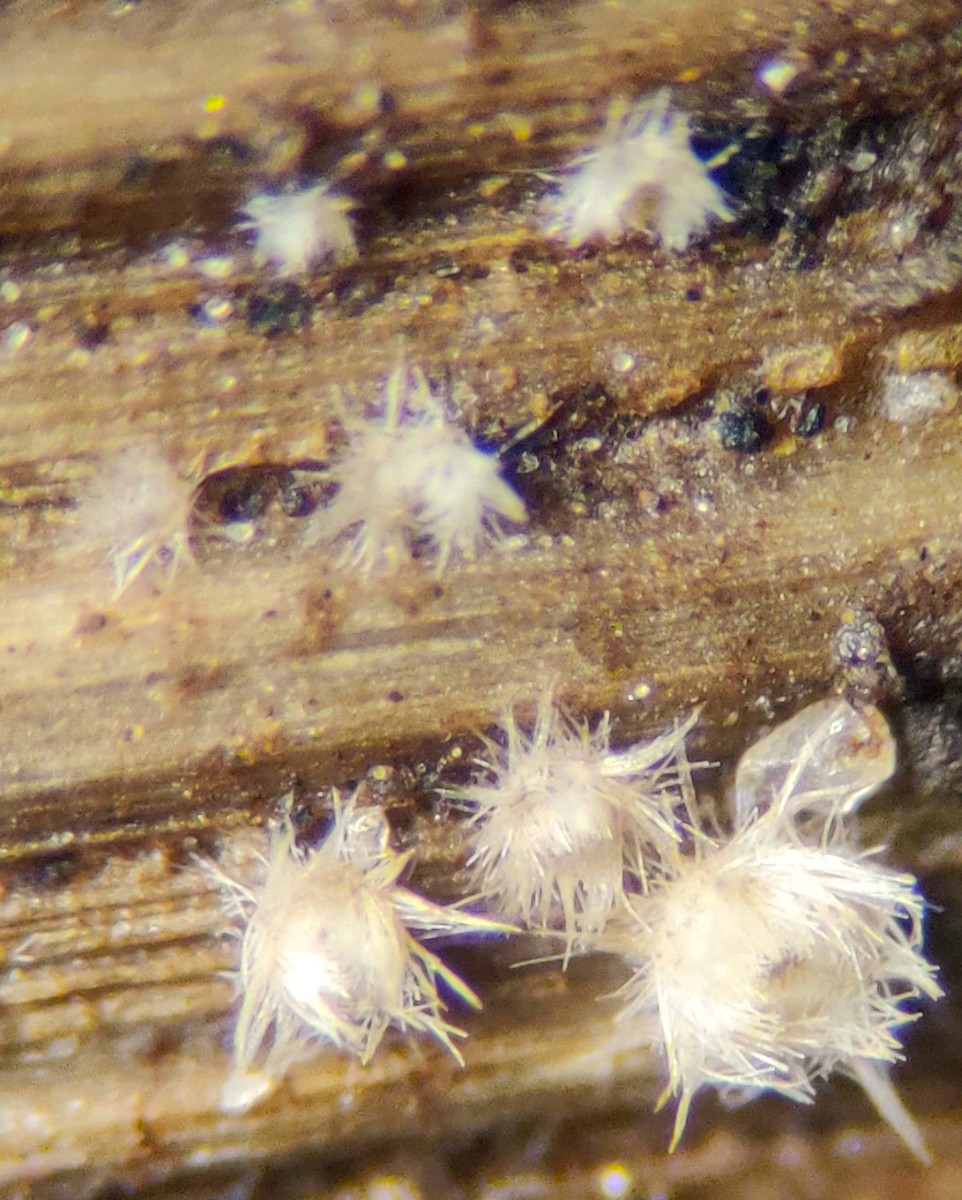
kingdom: Fungi
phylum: Ascomycota
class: Leotiomycetes
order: Helotiales
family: Lachnaceae
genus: Lachnum
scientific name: Lachnum mollissimum
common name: flødefarvet frynseskive
